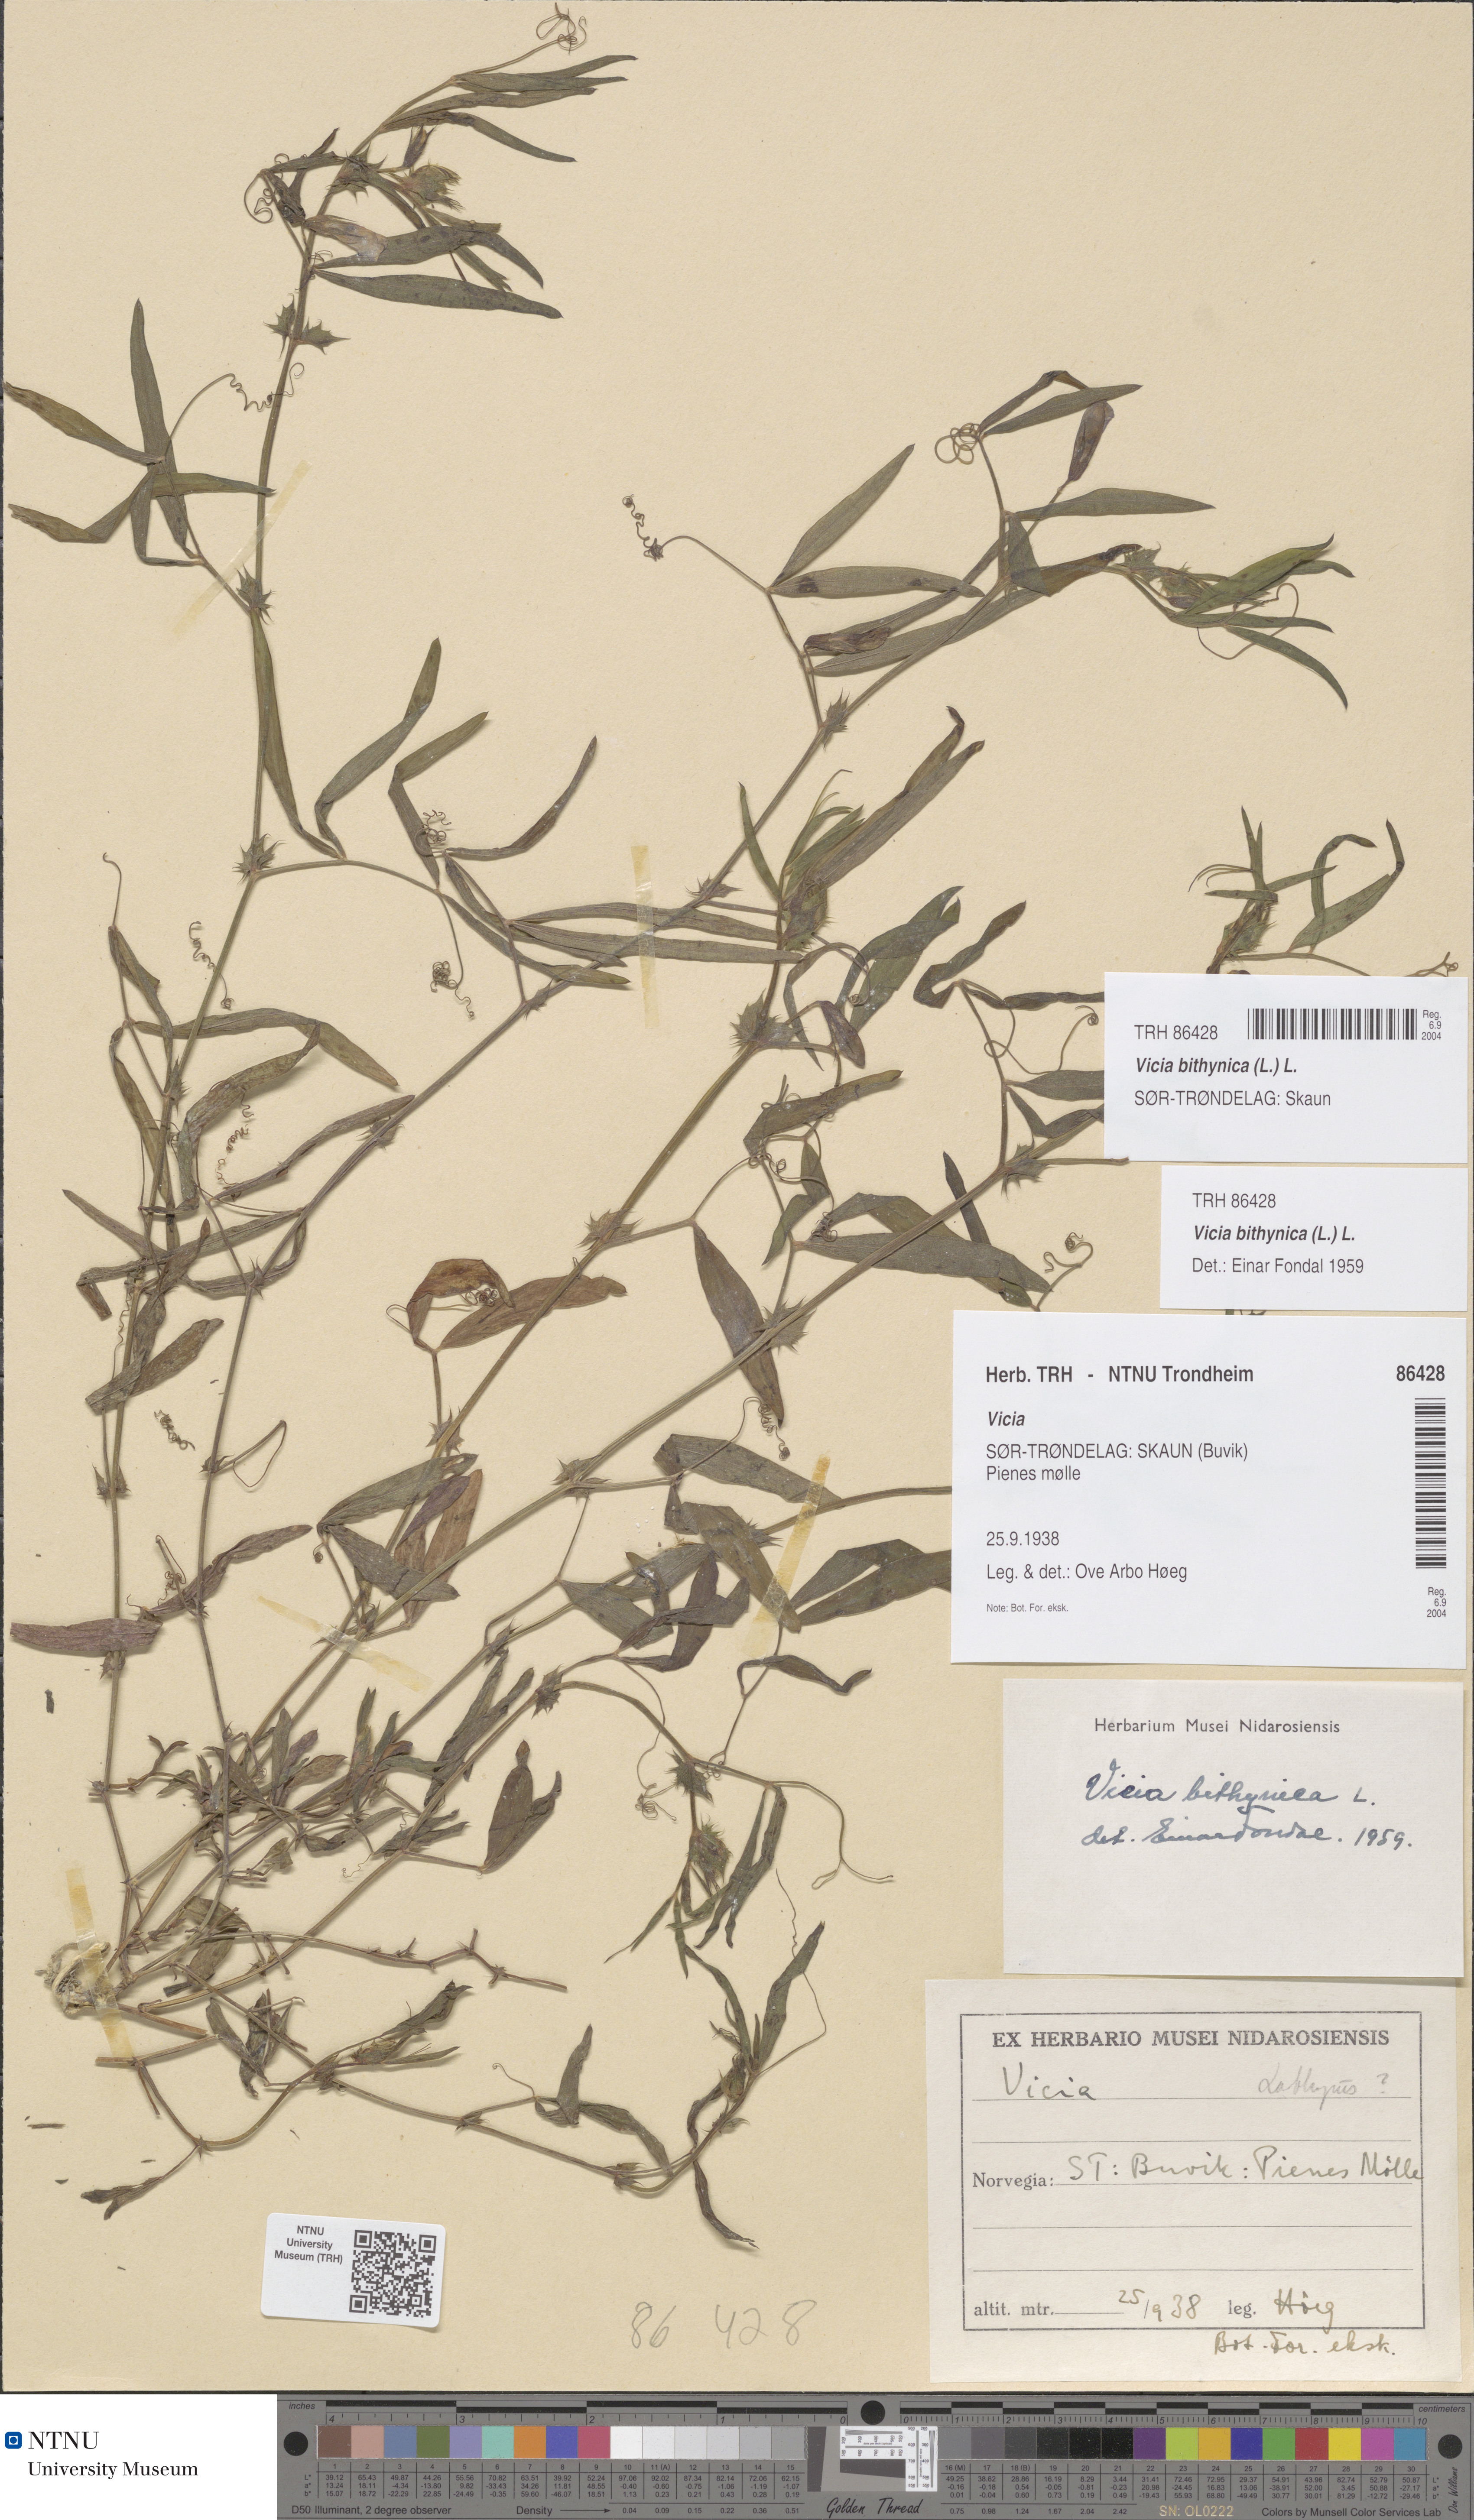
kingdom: Plantae
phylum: Tracheophyta
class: Magnoliopsida
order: Fabales
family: Fabaceae
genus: Vicia
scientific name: Vicia bithynica
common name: Bithynian vetch
